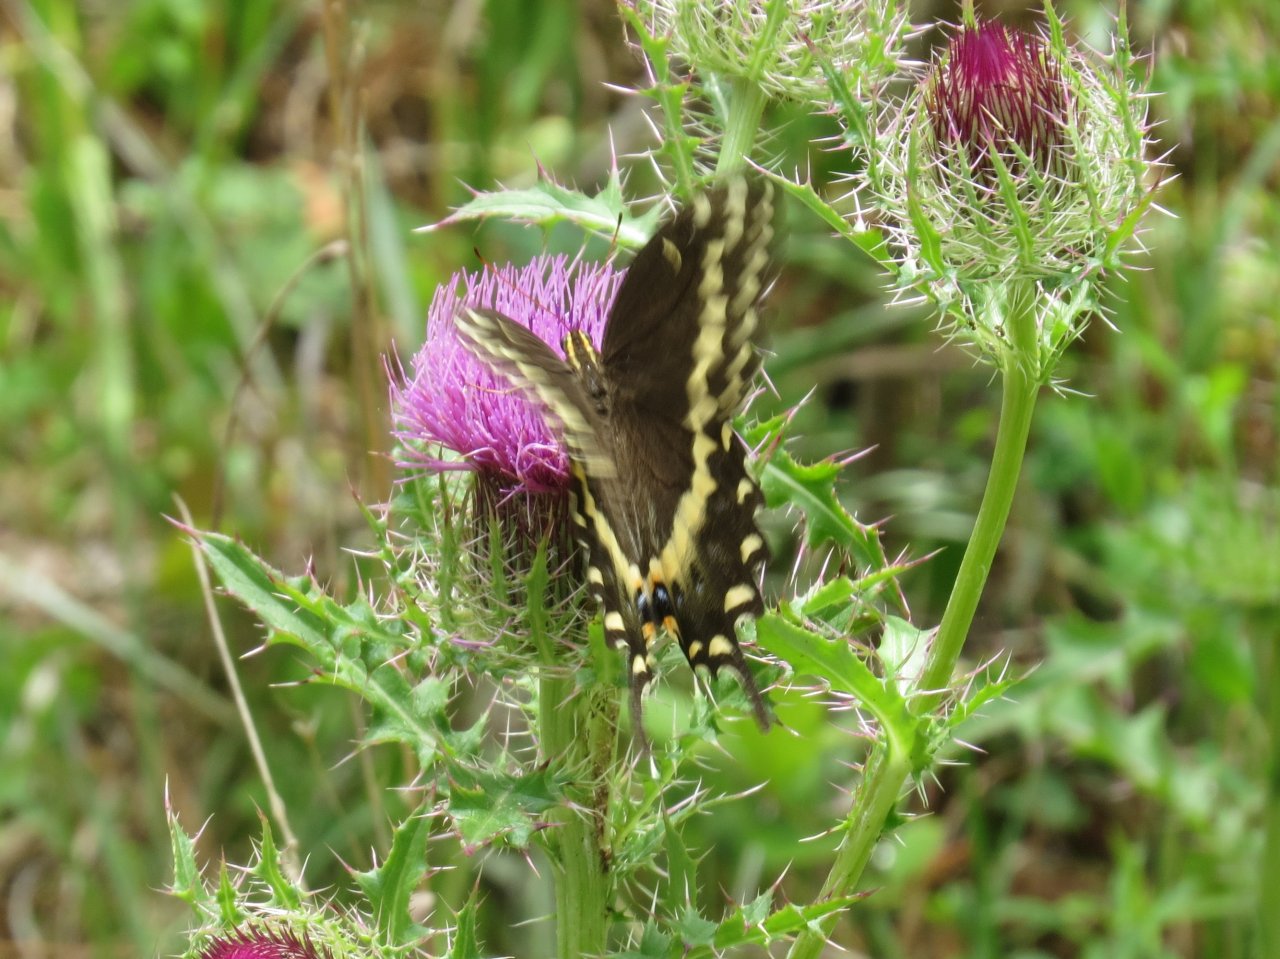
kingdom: Animalia
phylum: Arthropoda
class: Insecta
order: Lepidoptera
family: Papilionidae
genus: Pterourus
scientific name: Pterourus palamedes
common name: Palamedes Swallowtail
